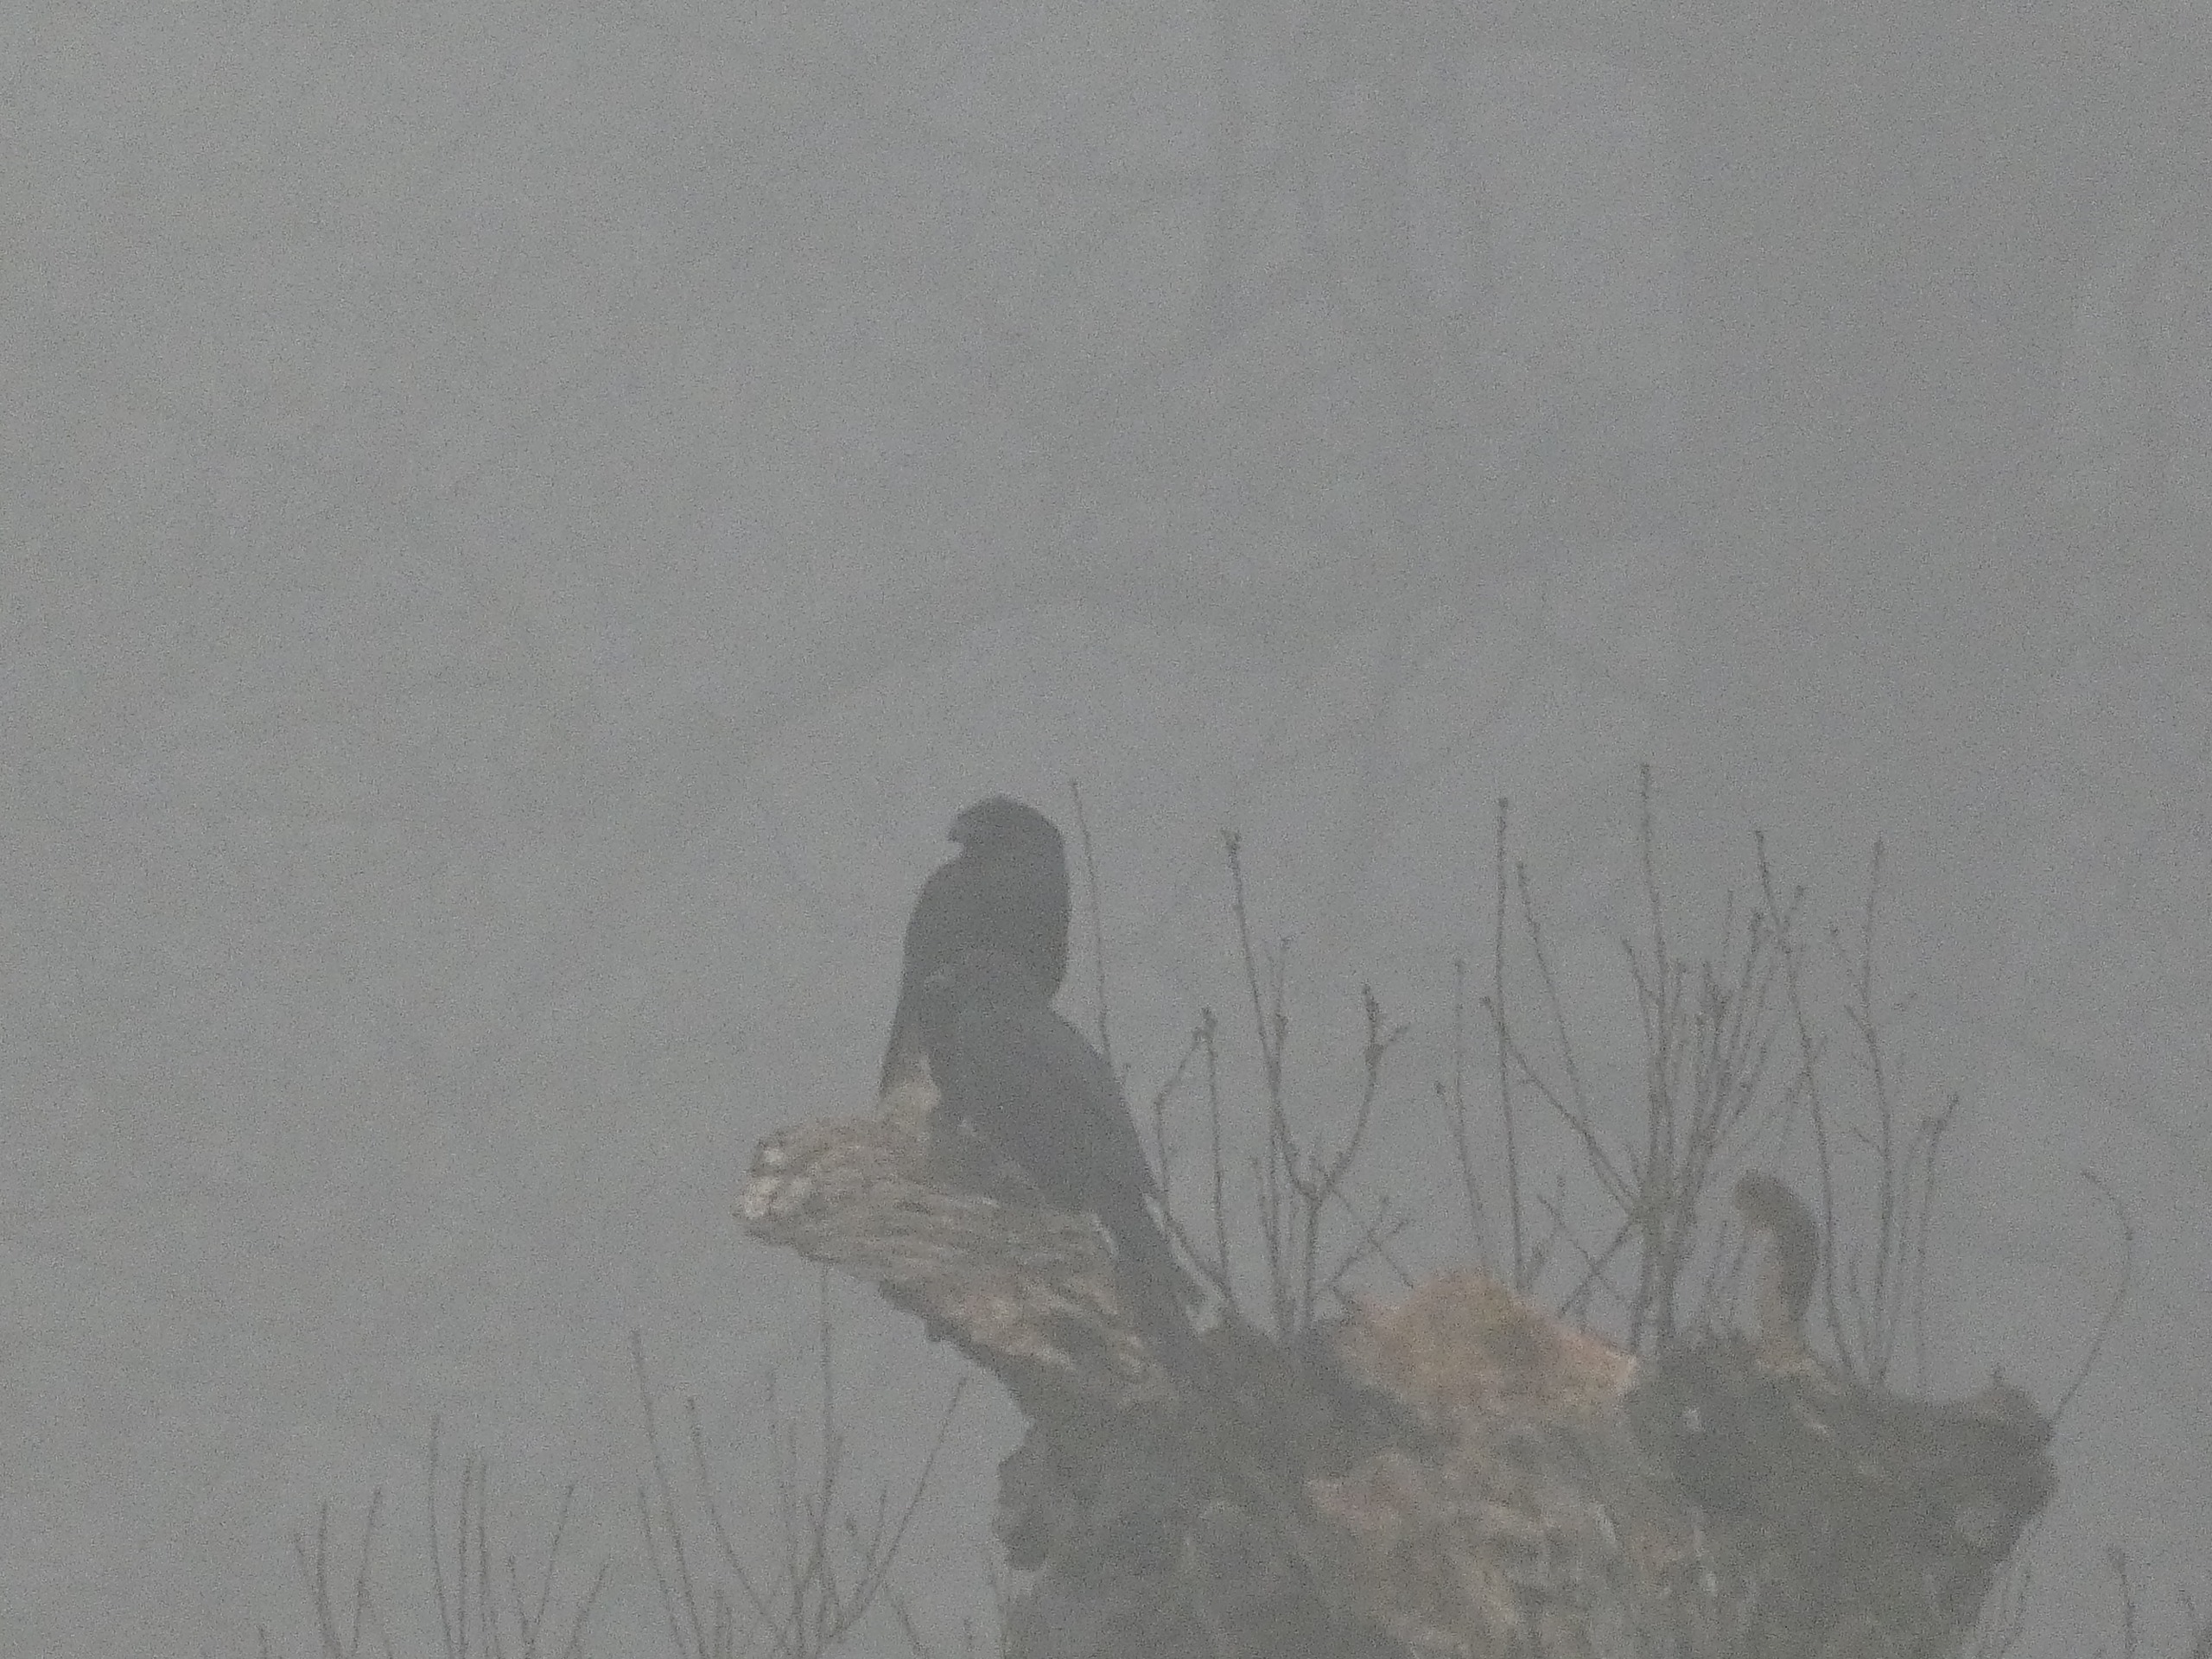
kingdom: Animalia
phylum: Chordata
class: Aves
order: Passeriformes
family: Corvidae
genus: Corvus
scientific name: Corvus corax
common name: Ravn
